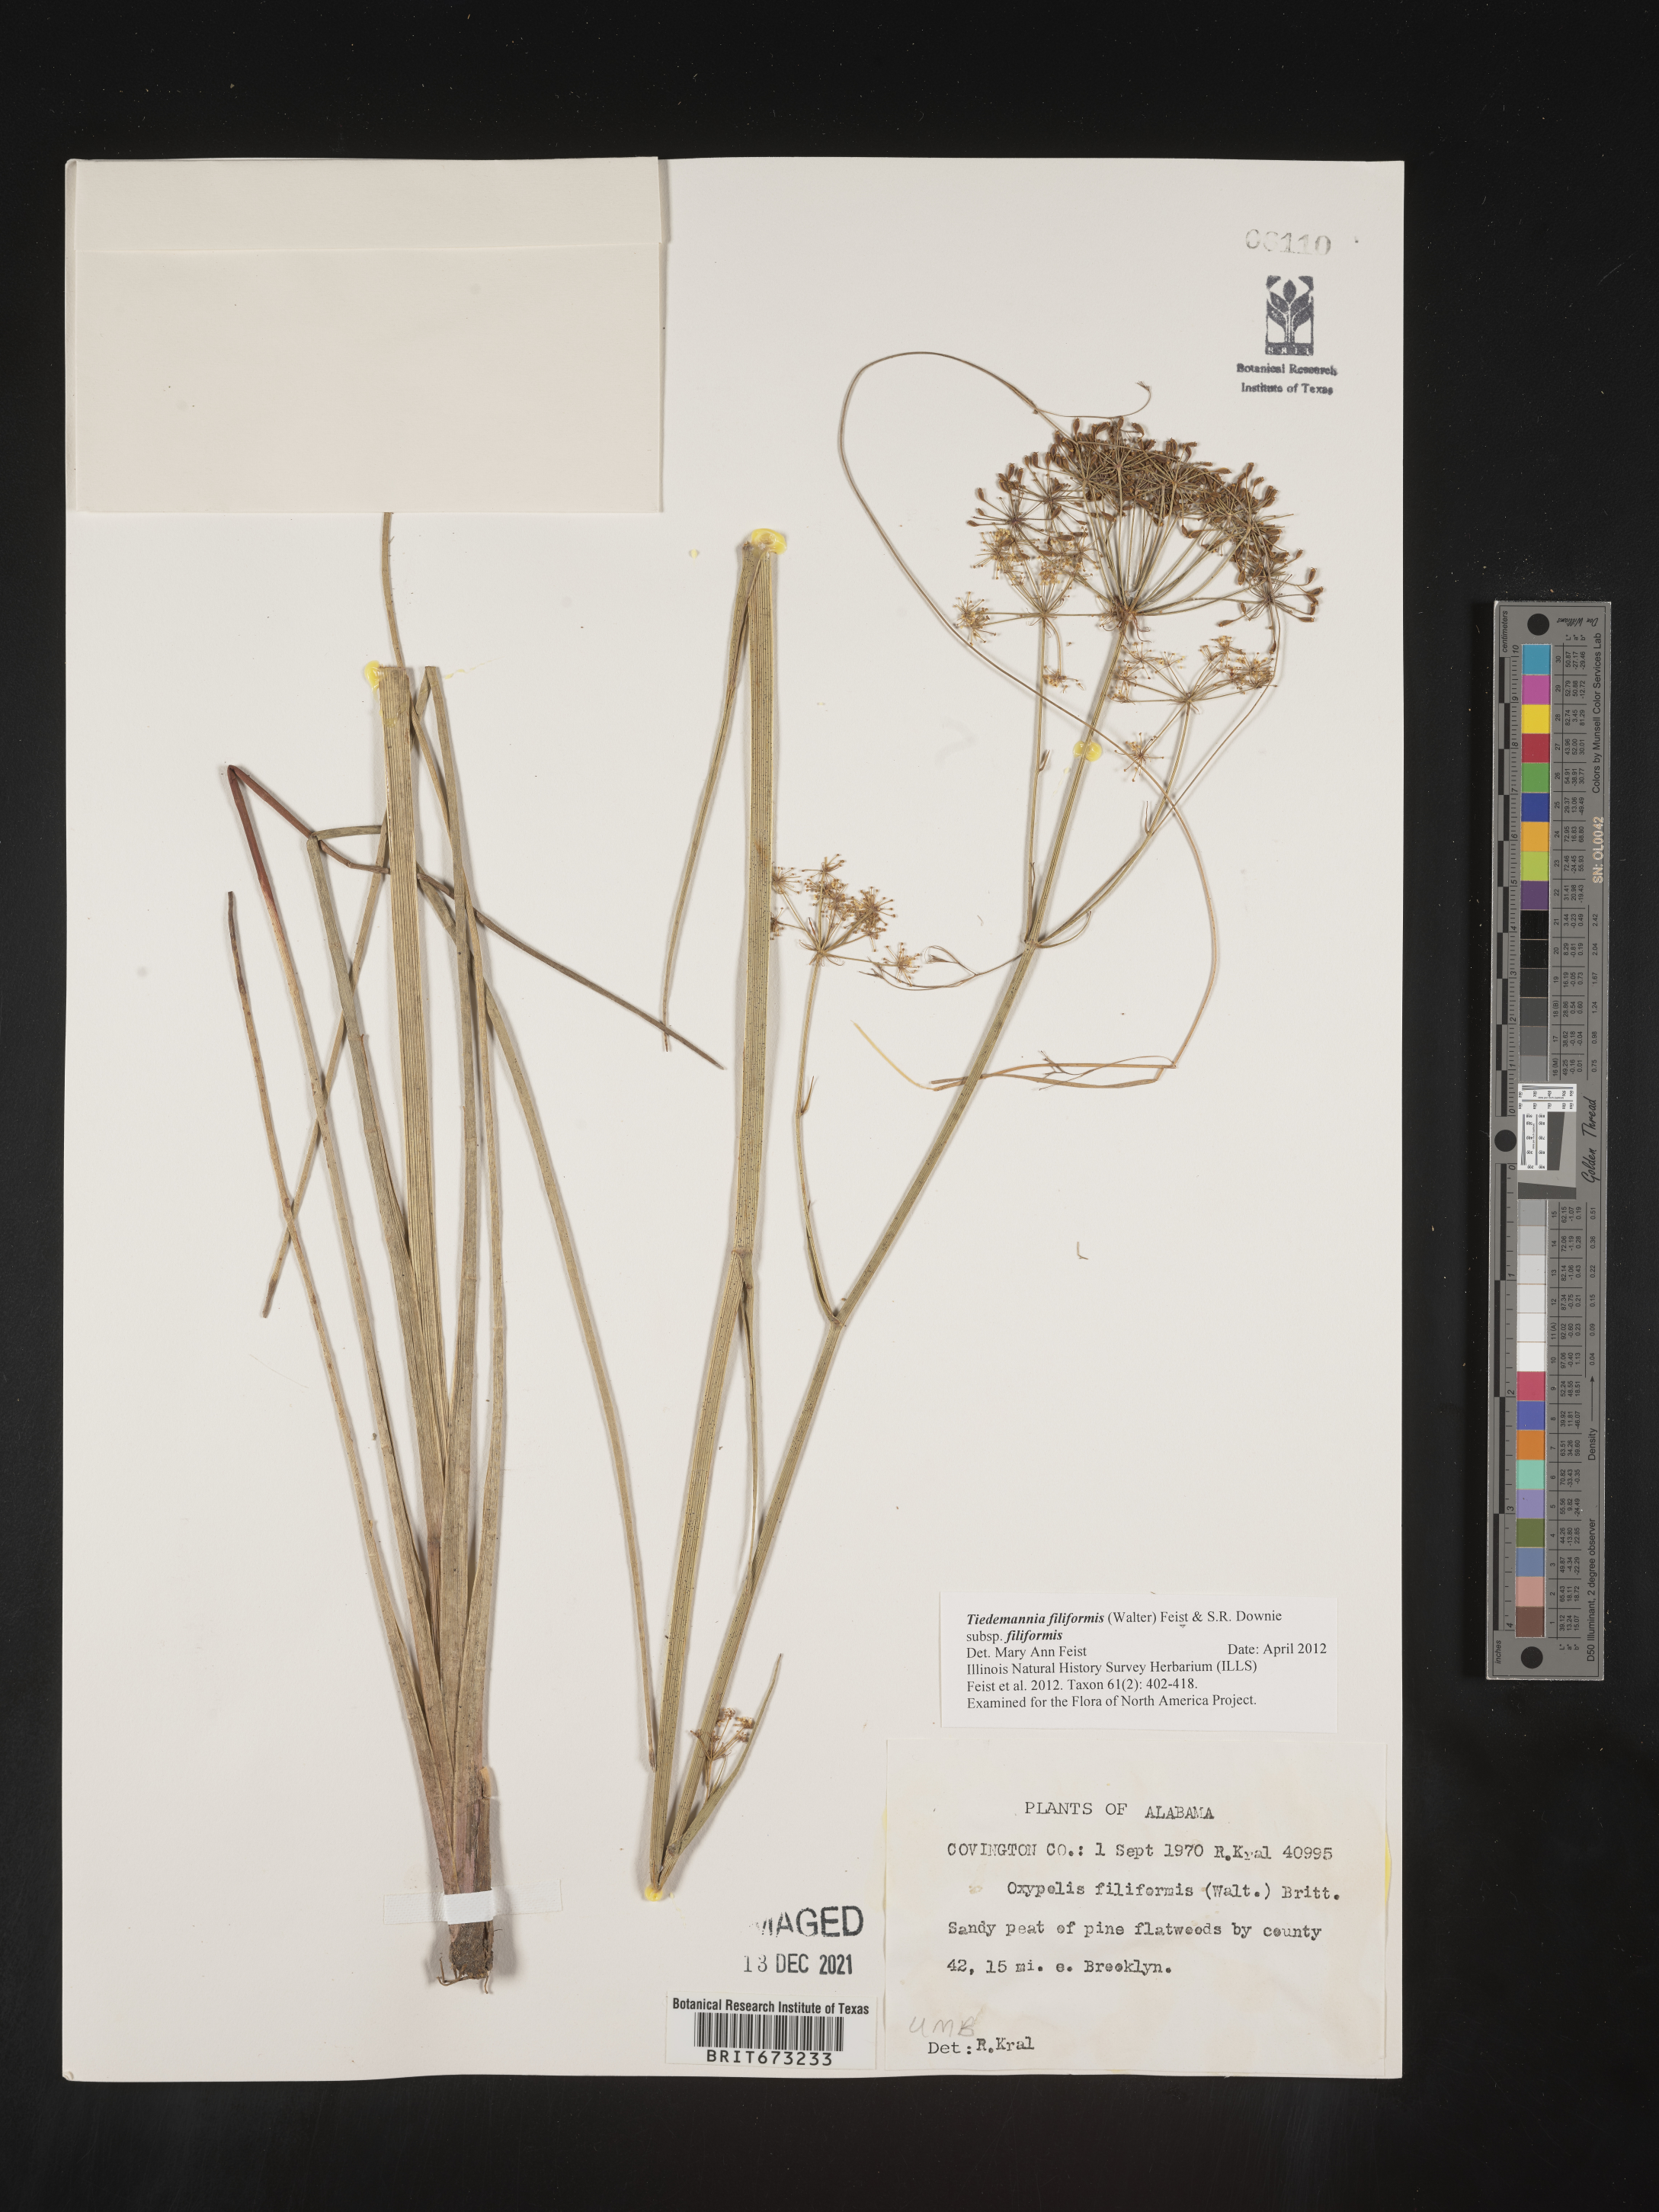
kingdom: Plantae
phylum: Tracheophyta
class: Magnoliopsida
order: Apiales
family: Apiaceae
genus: Tiedemannia
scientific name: Tiedemannia
